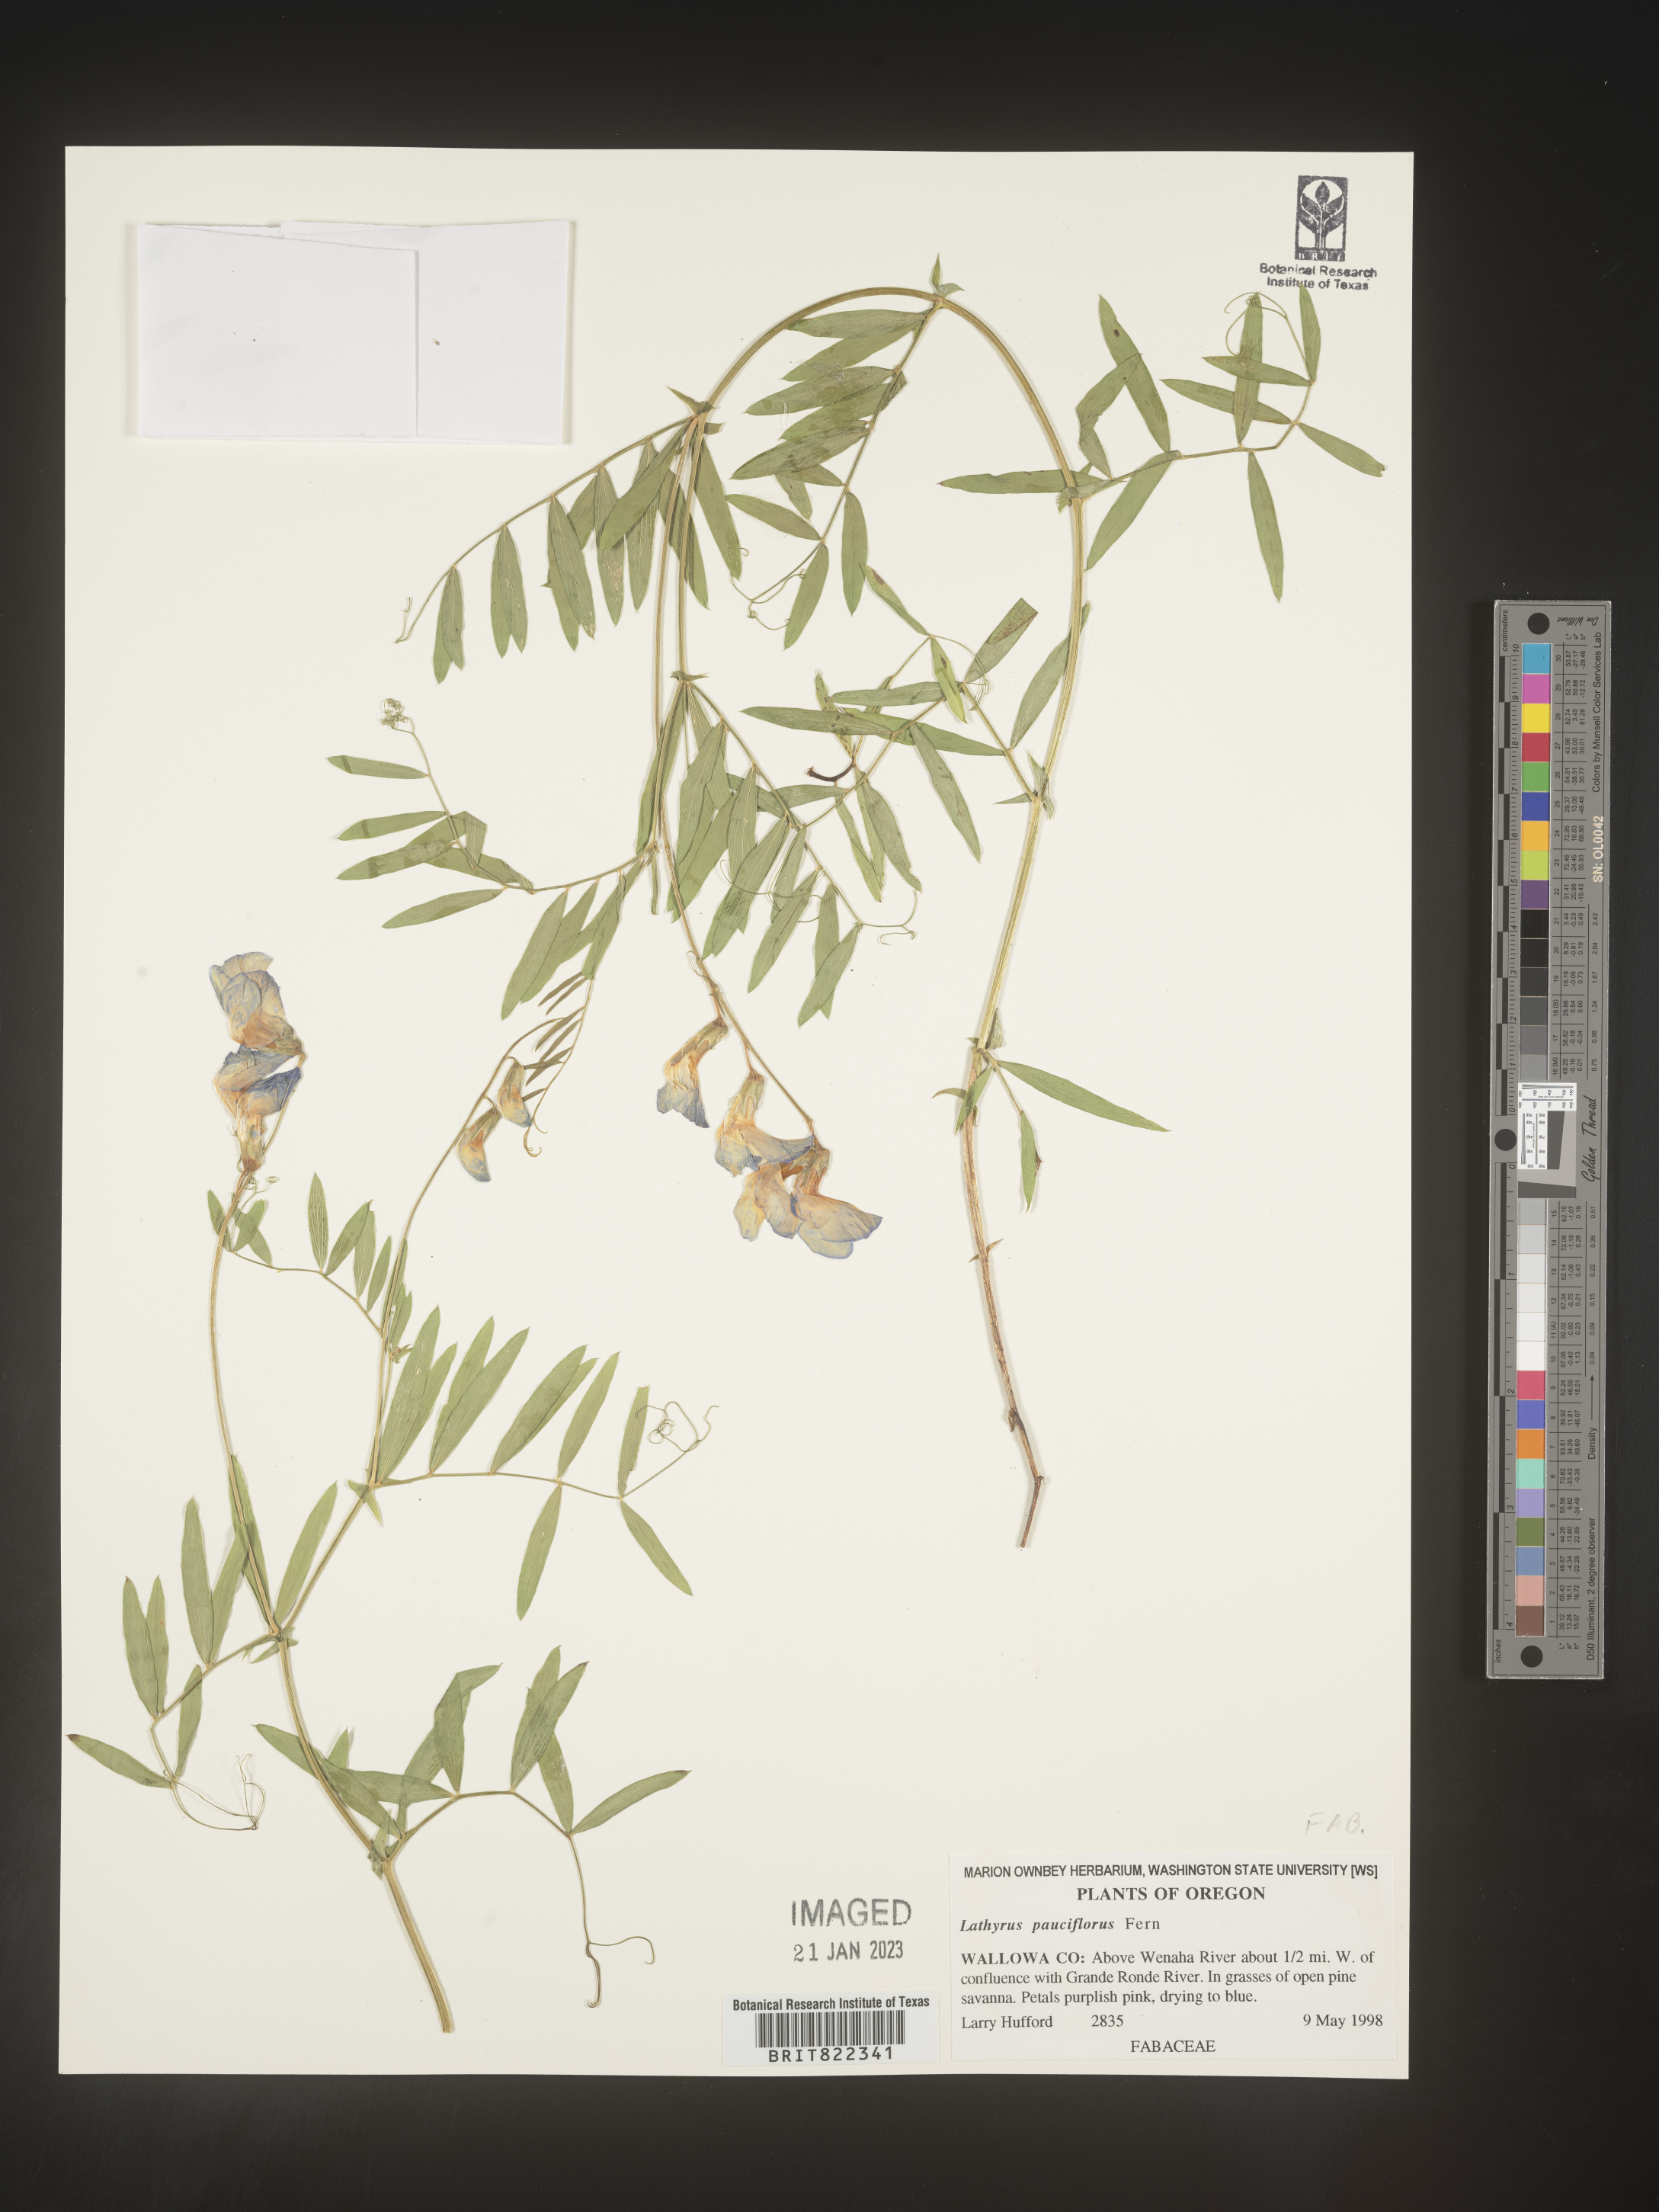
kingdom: Plantae
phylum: Tracheophyta
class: Magnoliopsida
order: Fabales
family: Fabaceae
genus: Lathyrus
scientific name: Lathyrus pauciflorus
